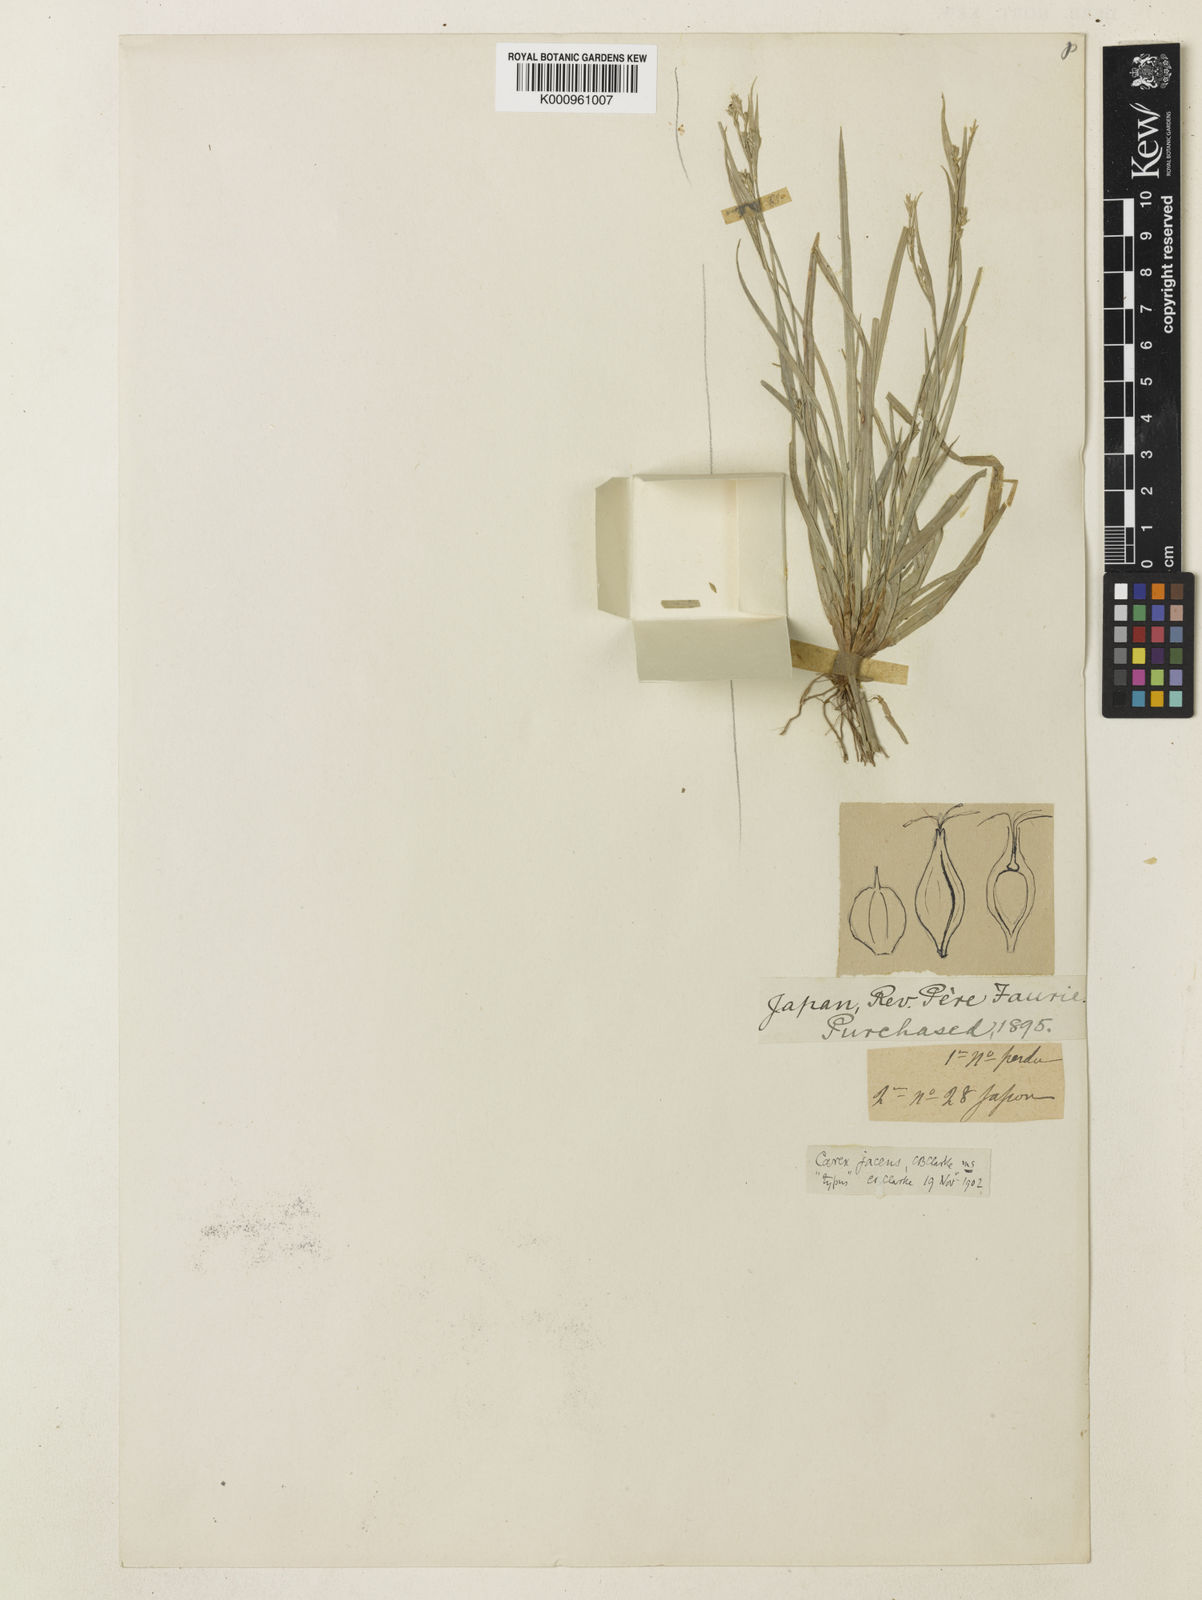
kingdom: Plantae
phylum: Tracheophyta
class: Liliopsida
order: Poales
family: Cyperaceae
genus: Carex
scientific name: Carex jacens
